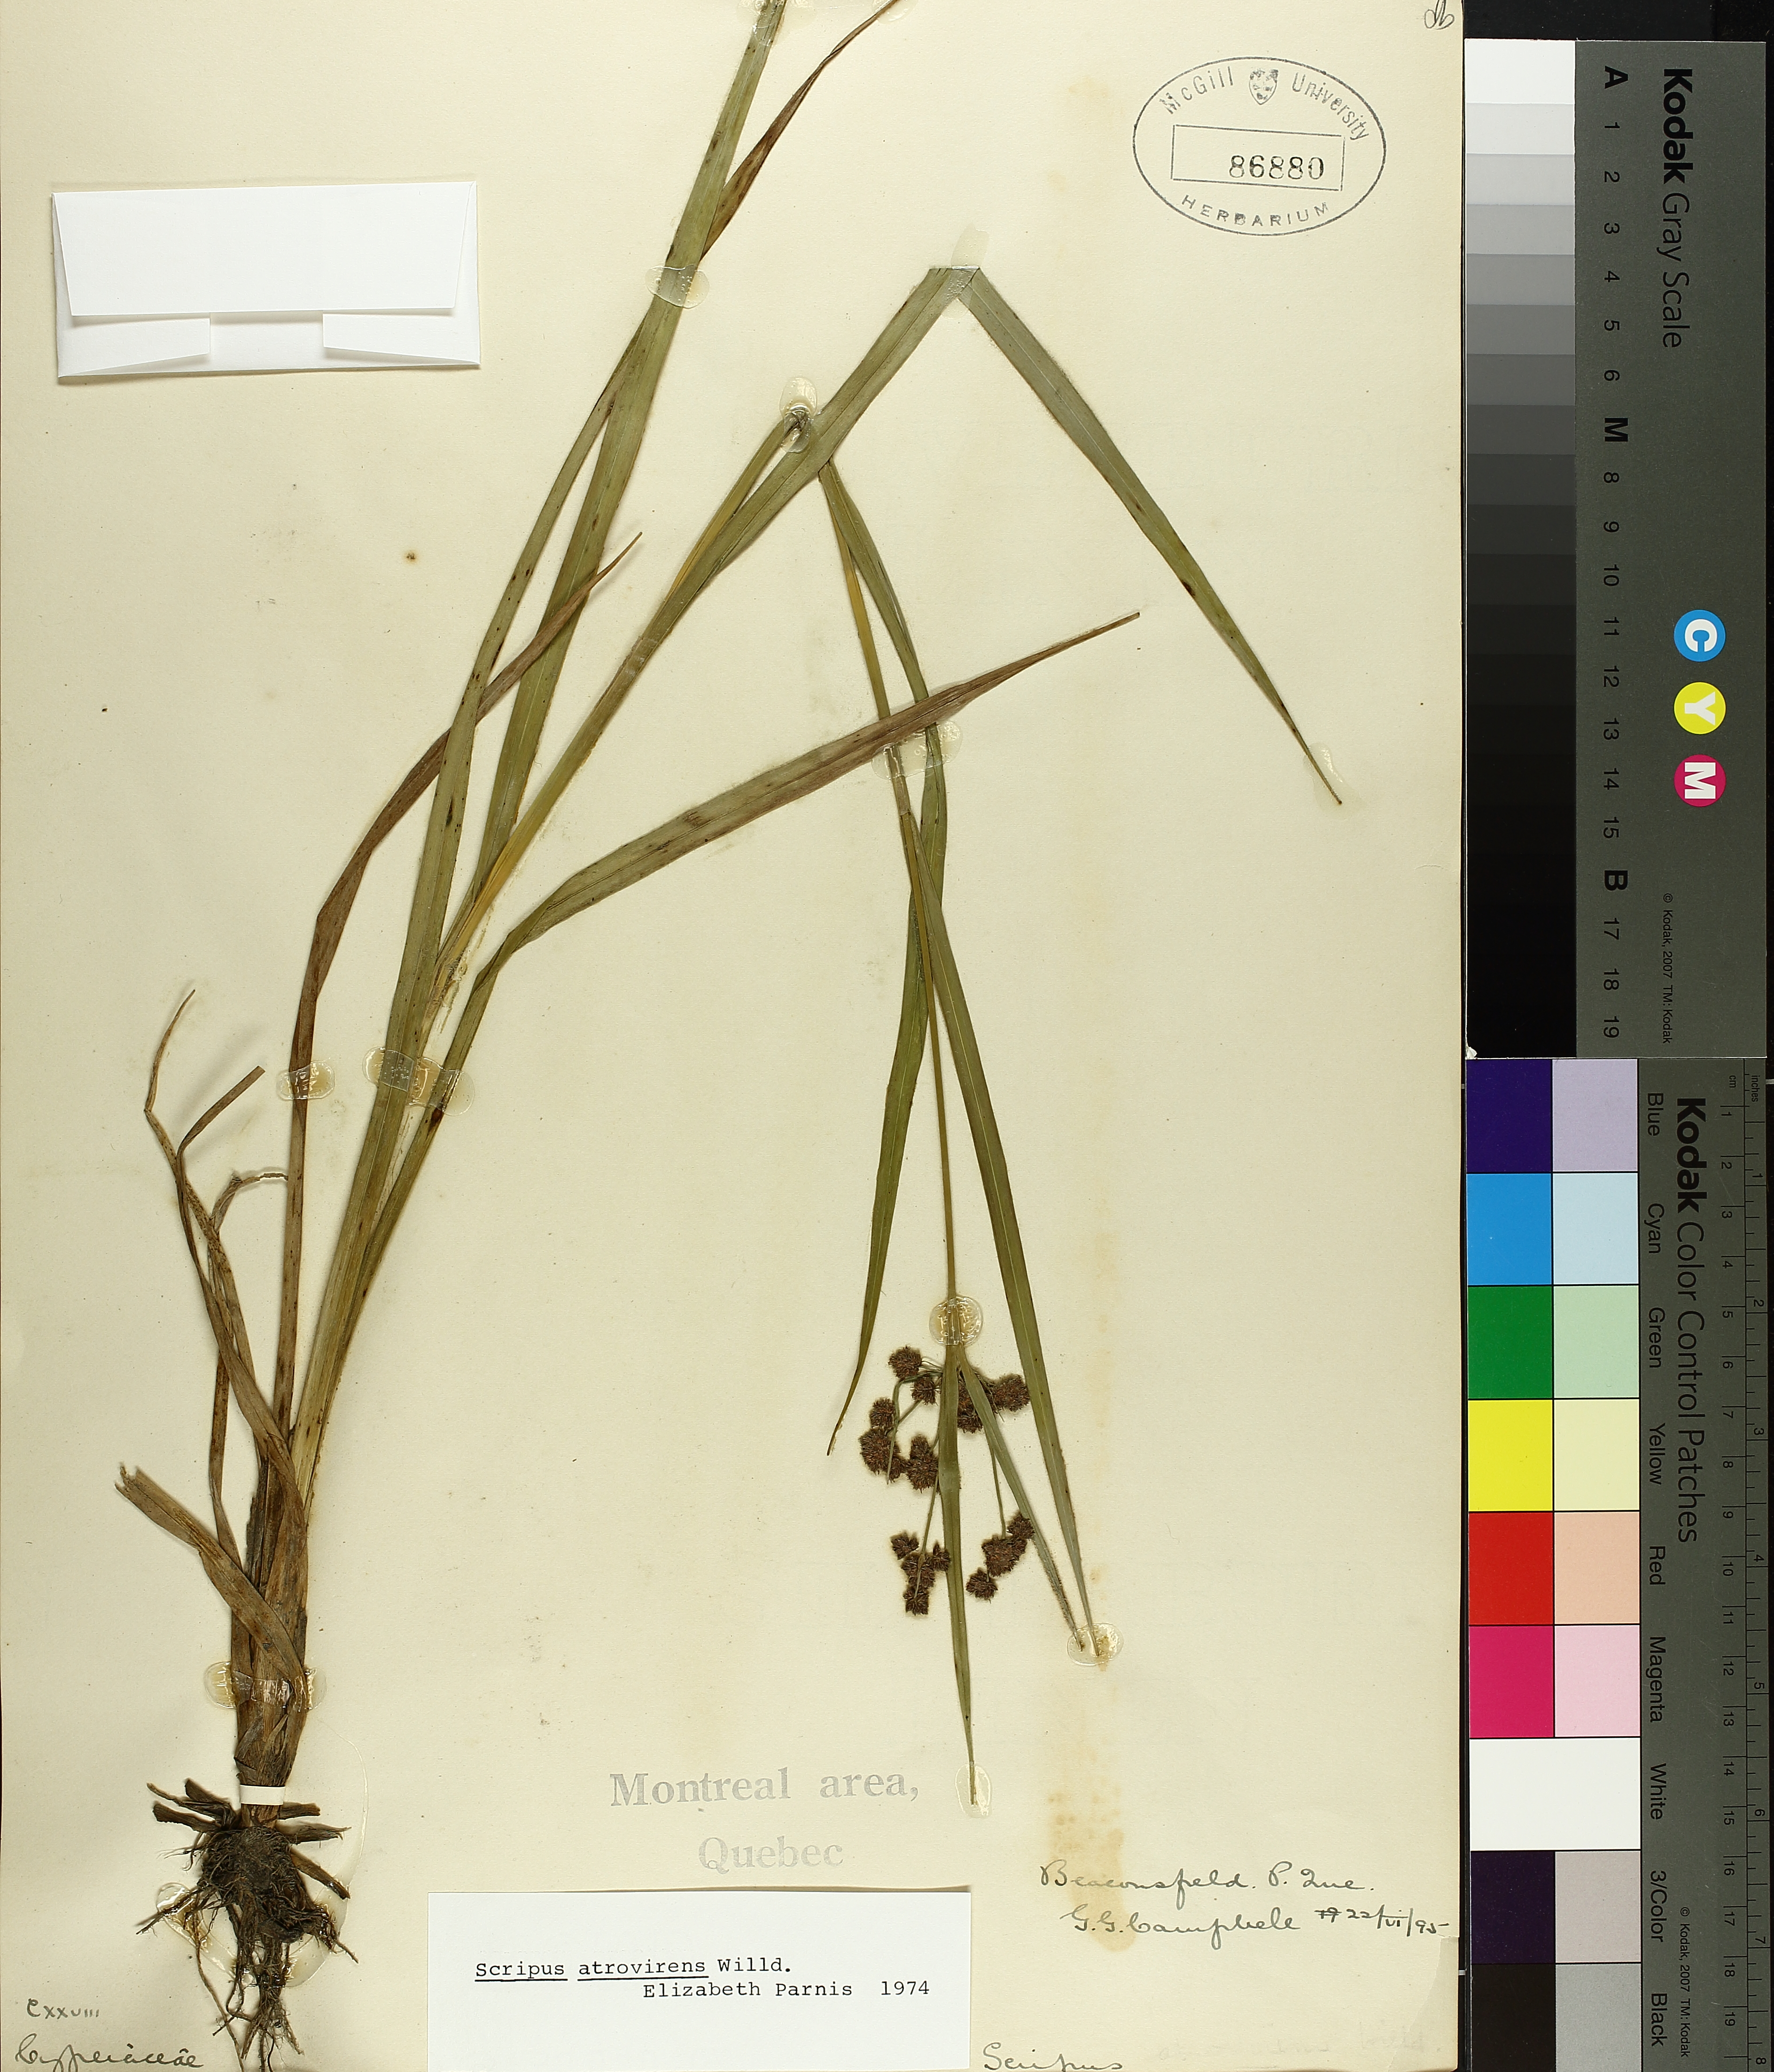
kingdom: Plantae
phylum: Tracheophyta
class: Liliopsida
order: Poales
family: Cyperaceae
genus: Scirpus
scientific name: Scirpus atrovirens
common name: Black bulrush
